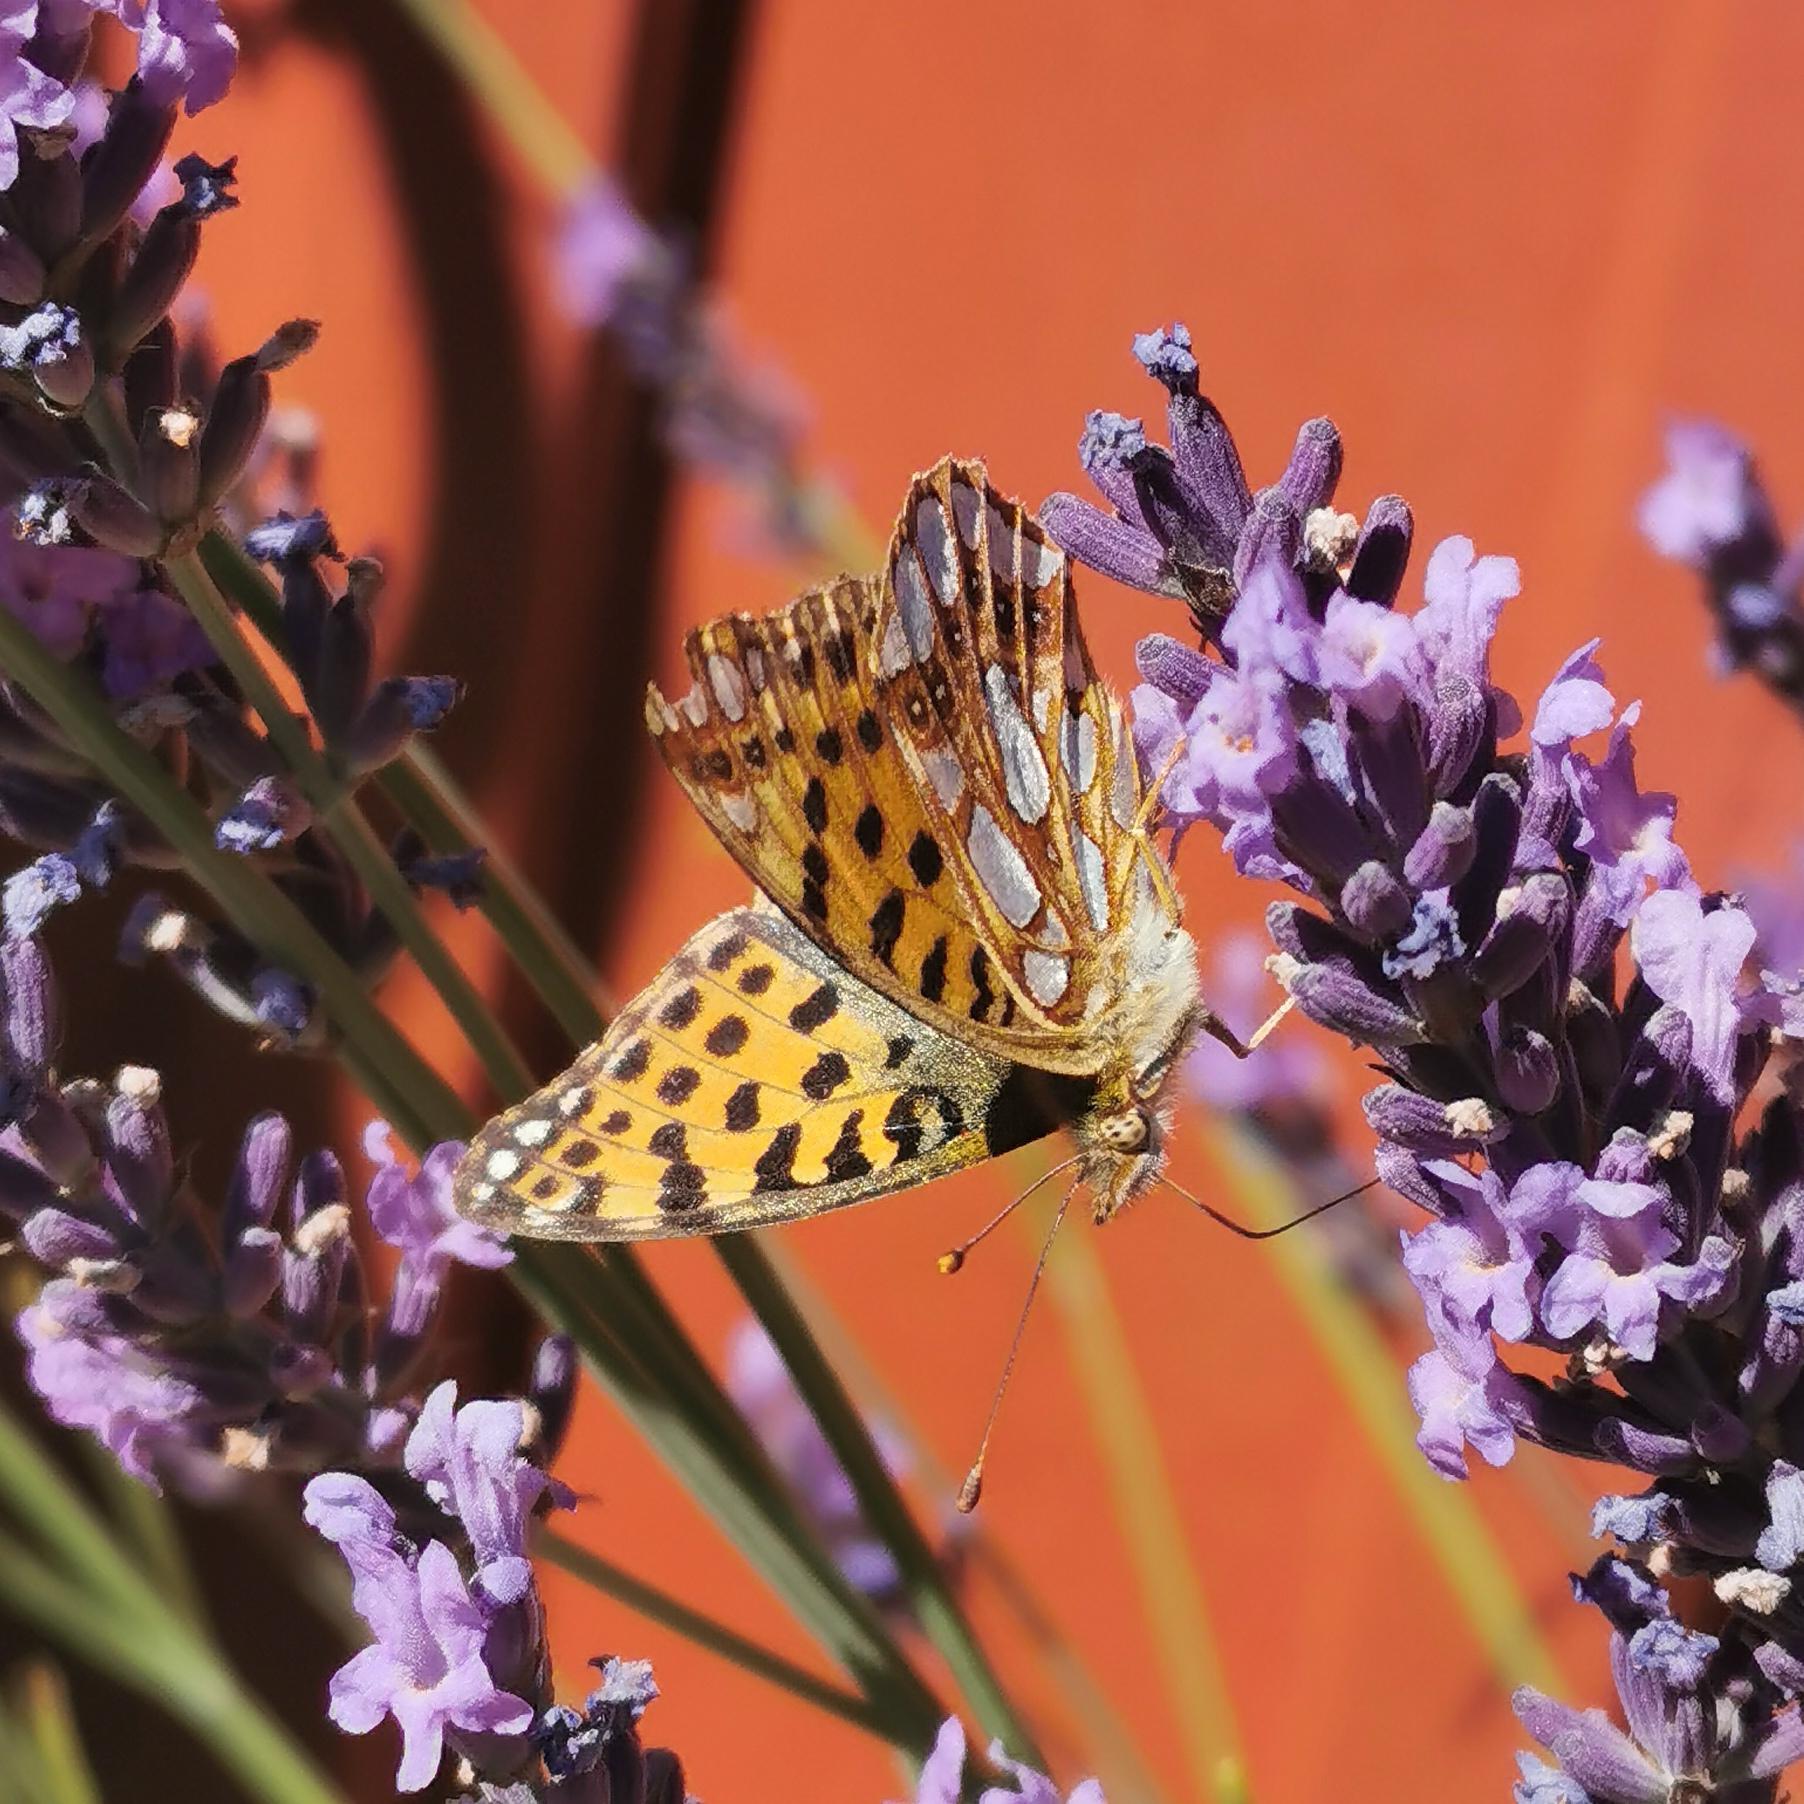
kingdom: Animalia
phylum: Arthropoda
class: Insecta
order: Lepidoptera
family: Nymphalidae
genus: Issoria
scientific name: Issoria lathonia
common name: Storplettet perlemorsommerfugl
